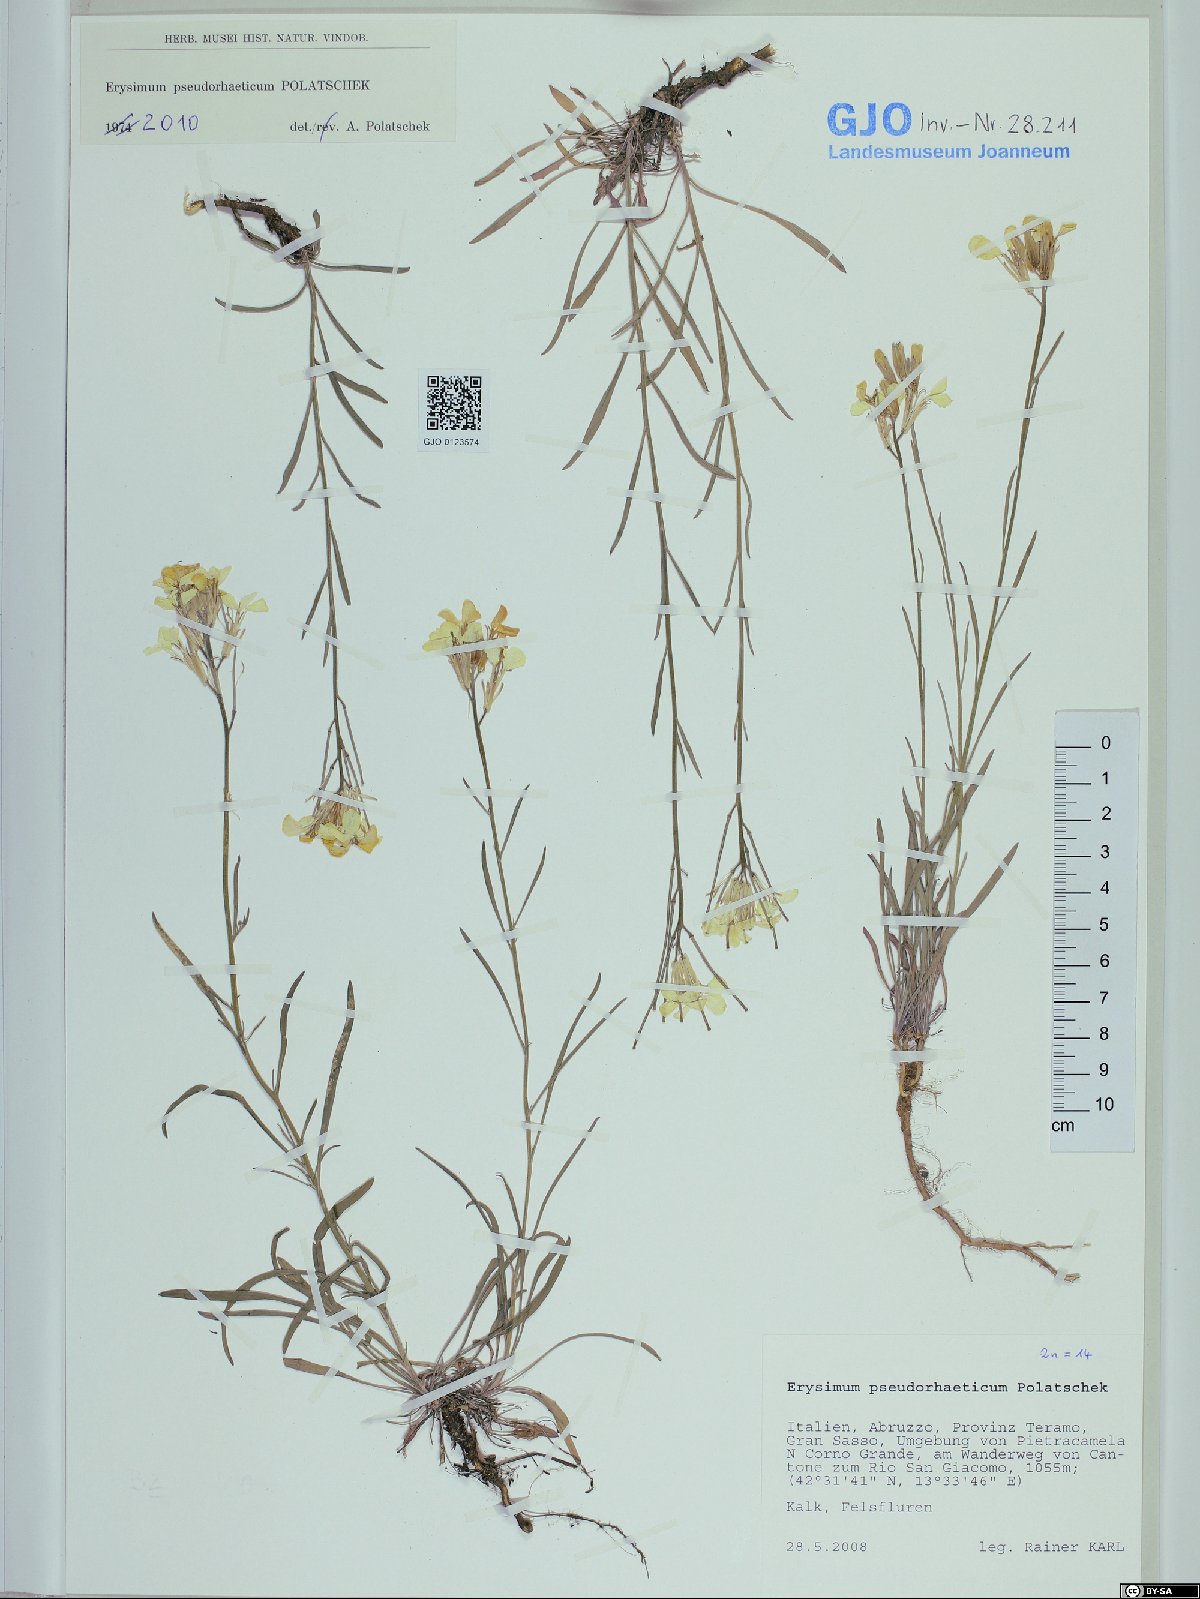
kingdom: Plantae
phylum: Tracheophyta
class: Magnoliopsida
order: Brassicales
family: Brassicaceae
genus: Erysimum
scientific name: Erysimum pseudorhaeticum
